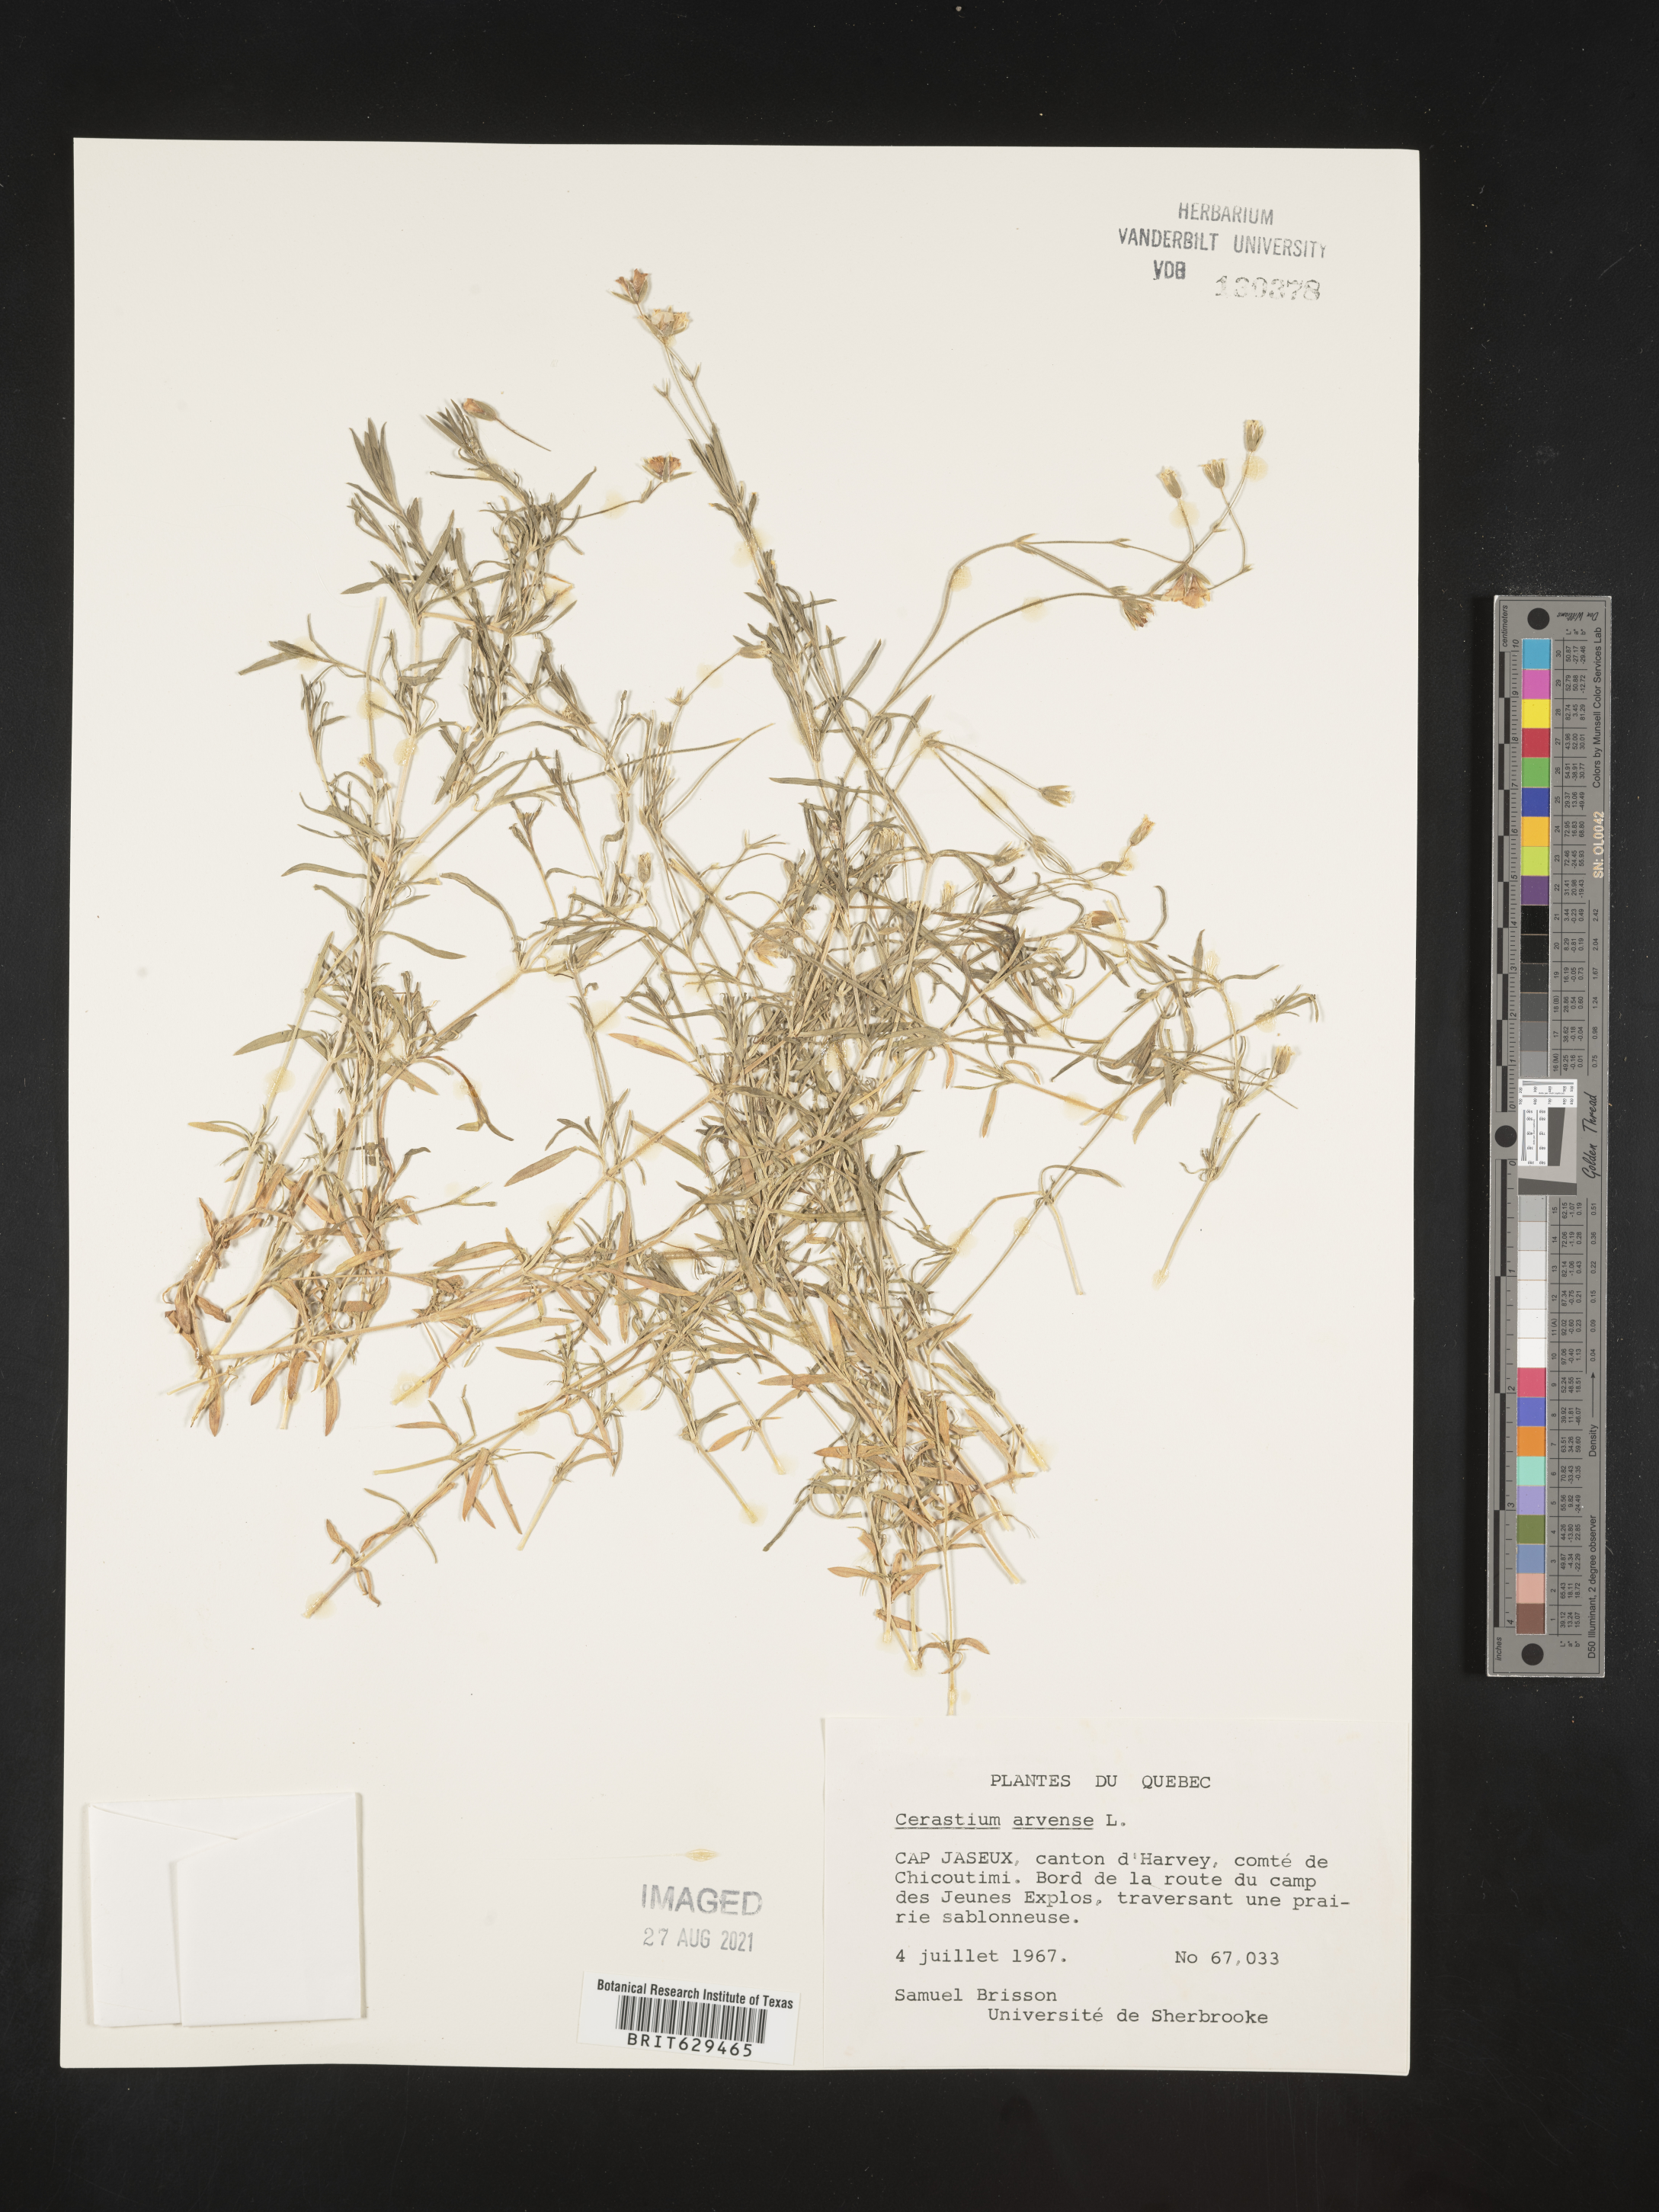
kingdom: Plantae
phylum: Tracheophyta
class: Magnoliopsida
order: Caryophyllales
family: Caryophyllaceae
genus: Cerastium
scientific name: Cerastium arvense
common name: Field mouse-ear
